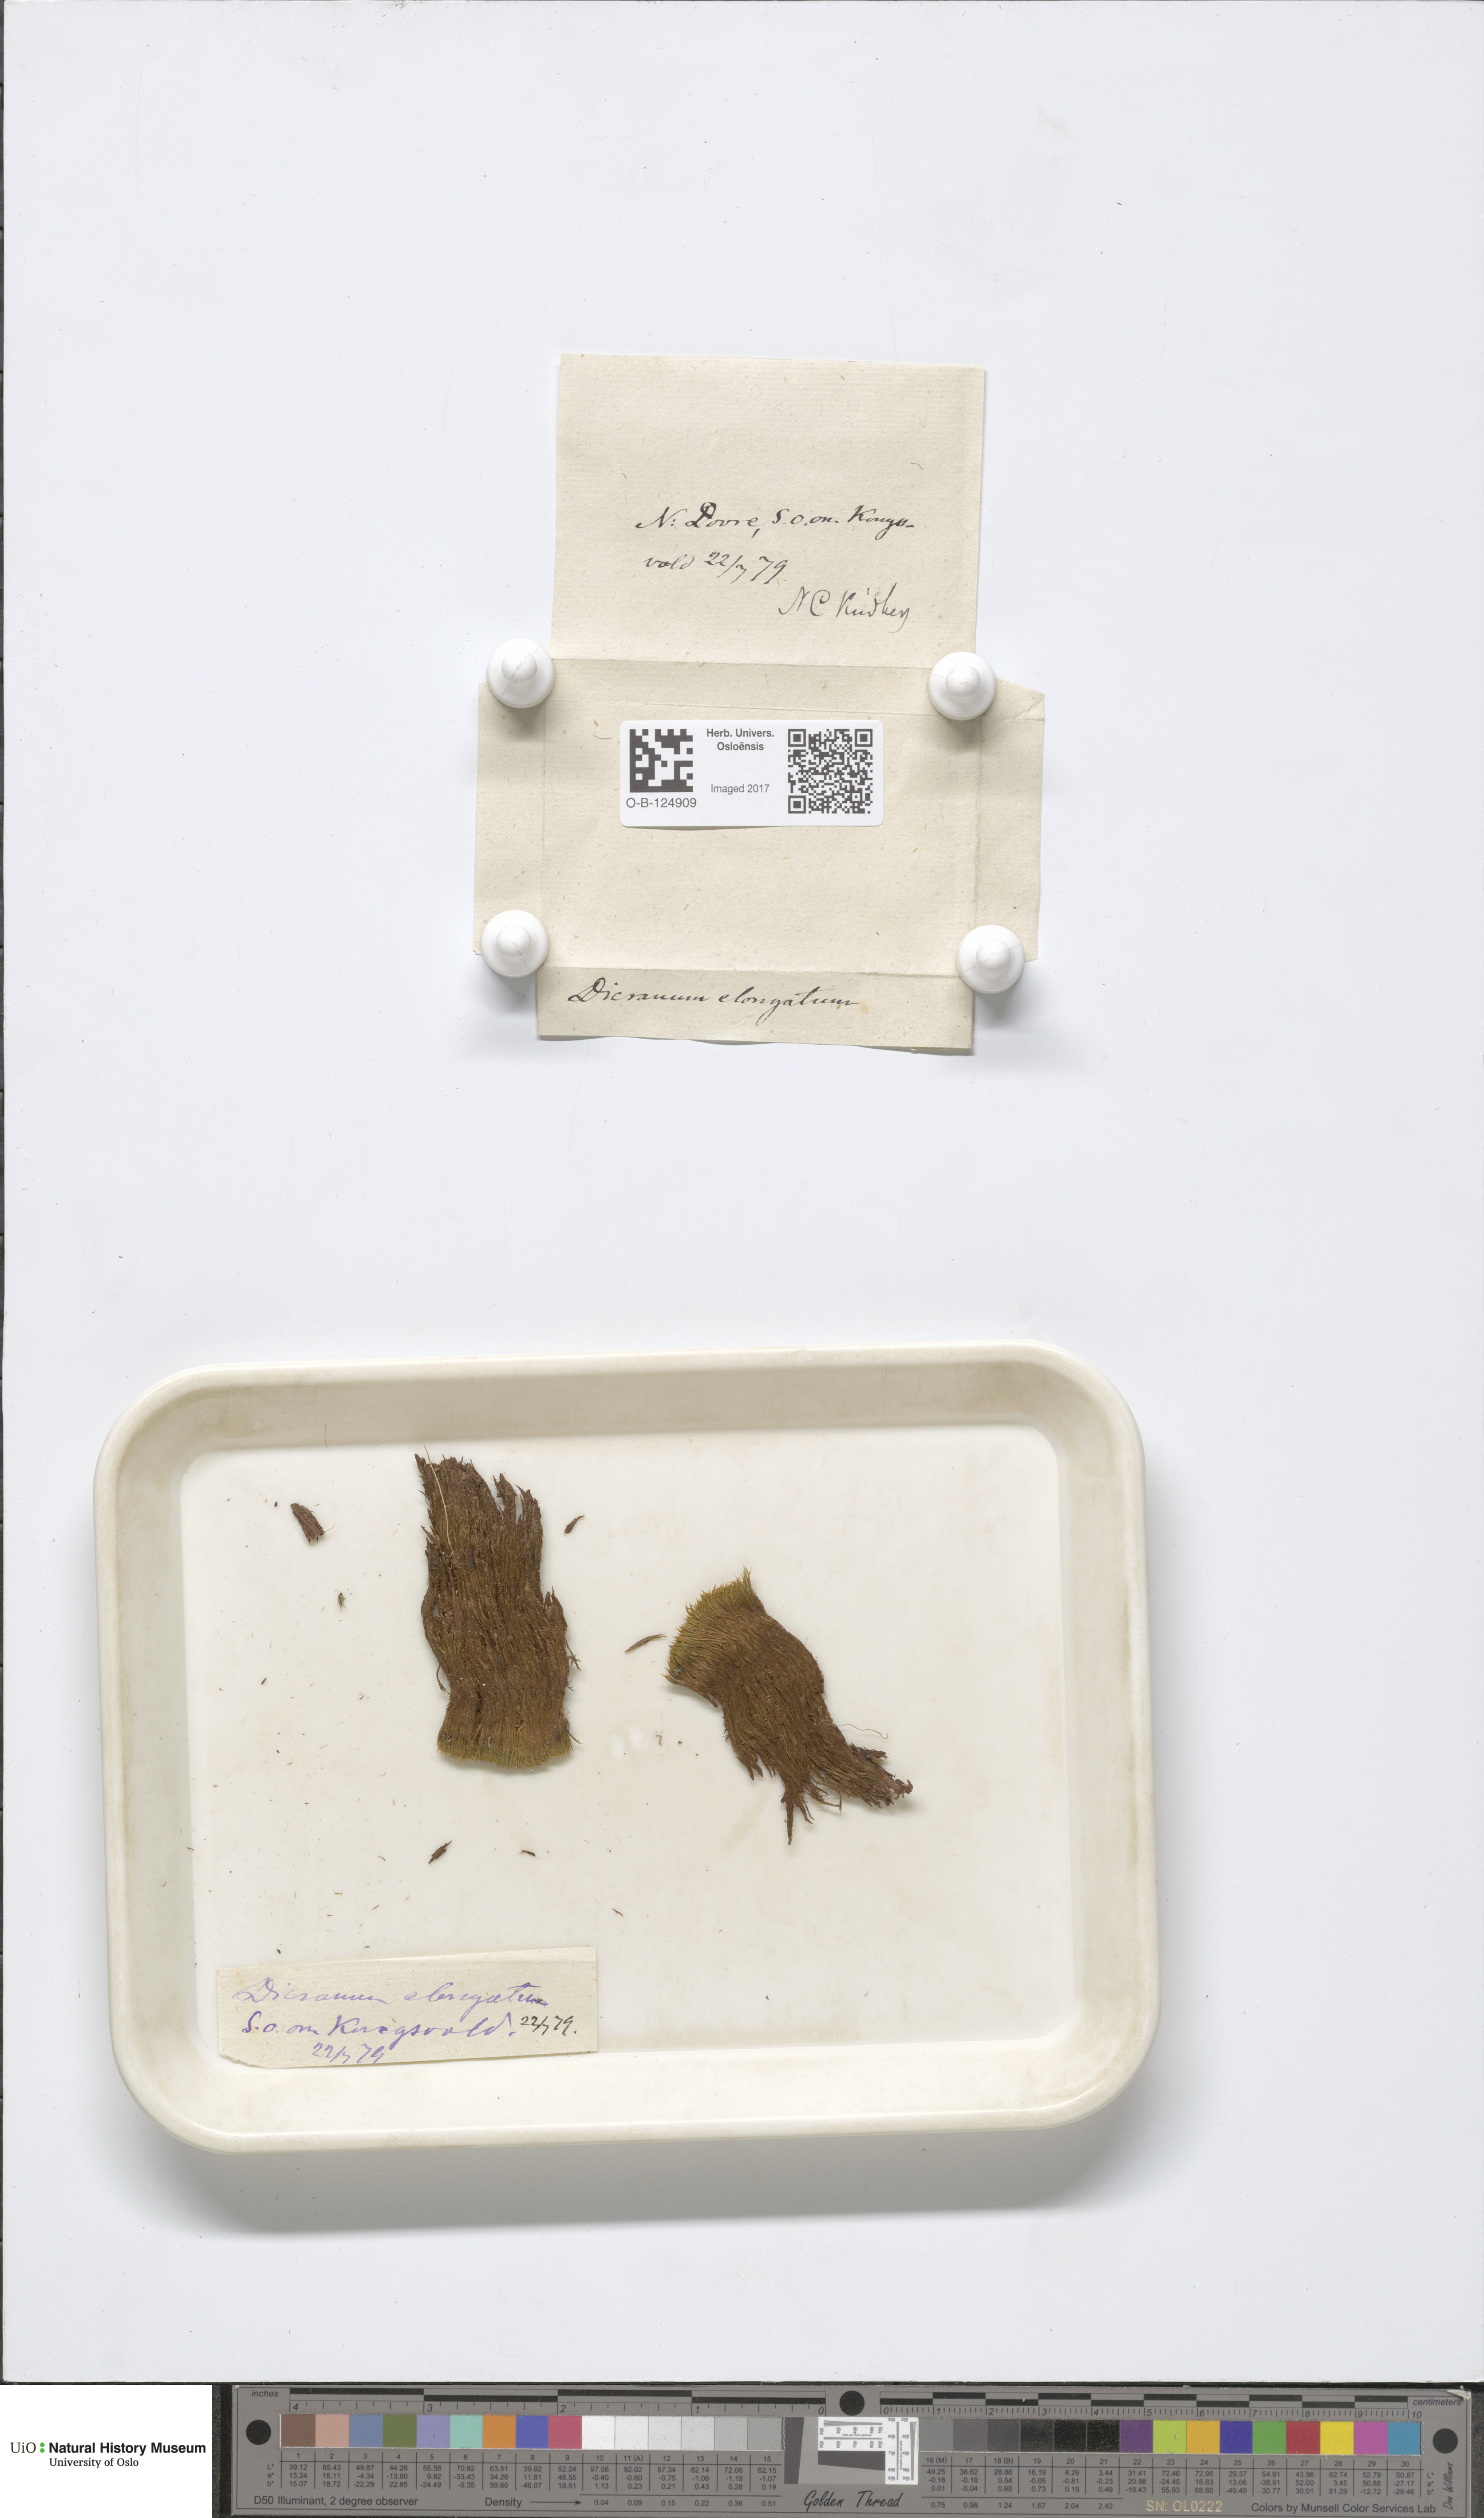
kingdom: Plantae
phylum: Bryophyta
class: Bryopsida
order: Dicranales
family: Dicranaceae
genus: Dicranum
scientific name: Dicranum elongatum
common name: Long-forked broom moss
